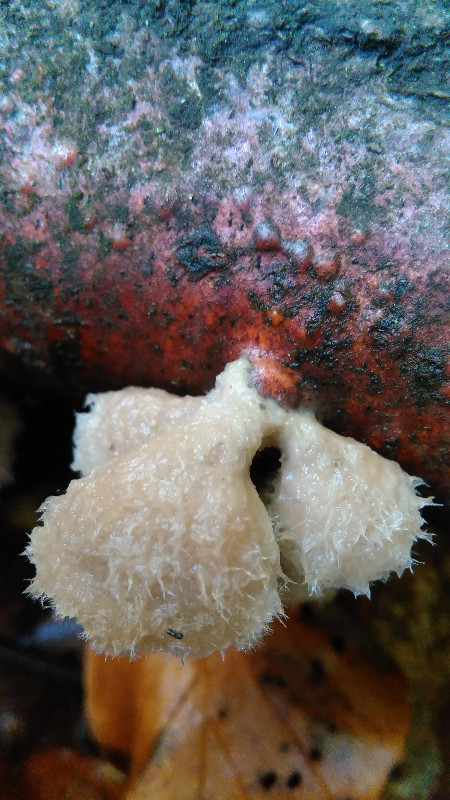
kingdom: Fungi
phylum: Basidiomycota
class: Agaricomycetes
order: Agaricales
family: Schizophyllaceae
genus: Schizophyllum
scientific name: Schizophyllum commune
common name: kløvblad
